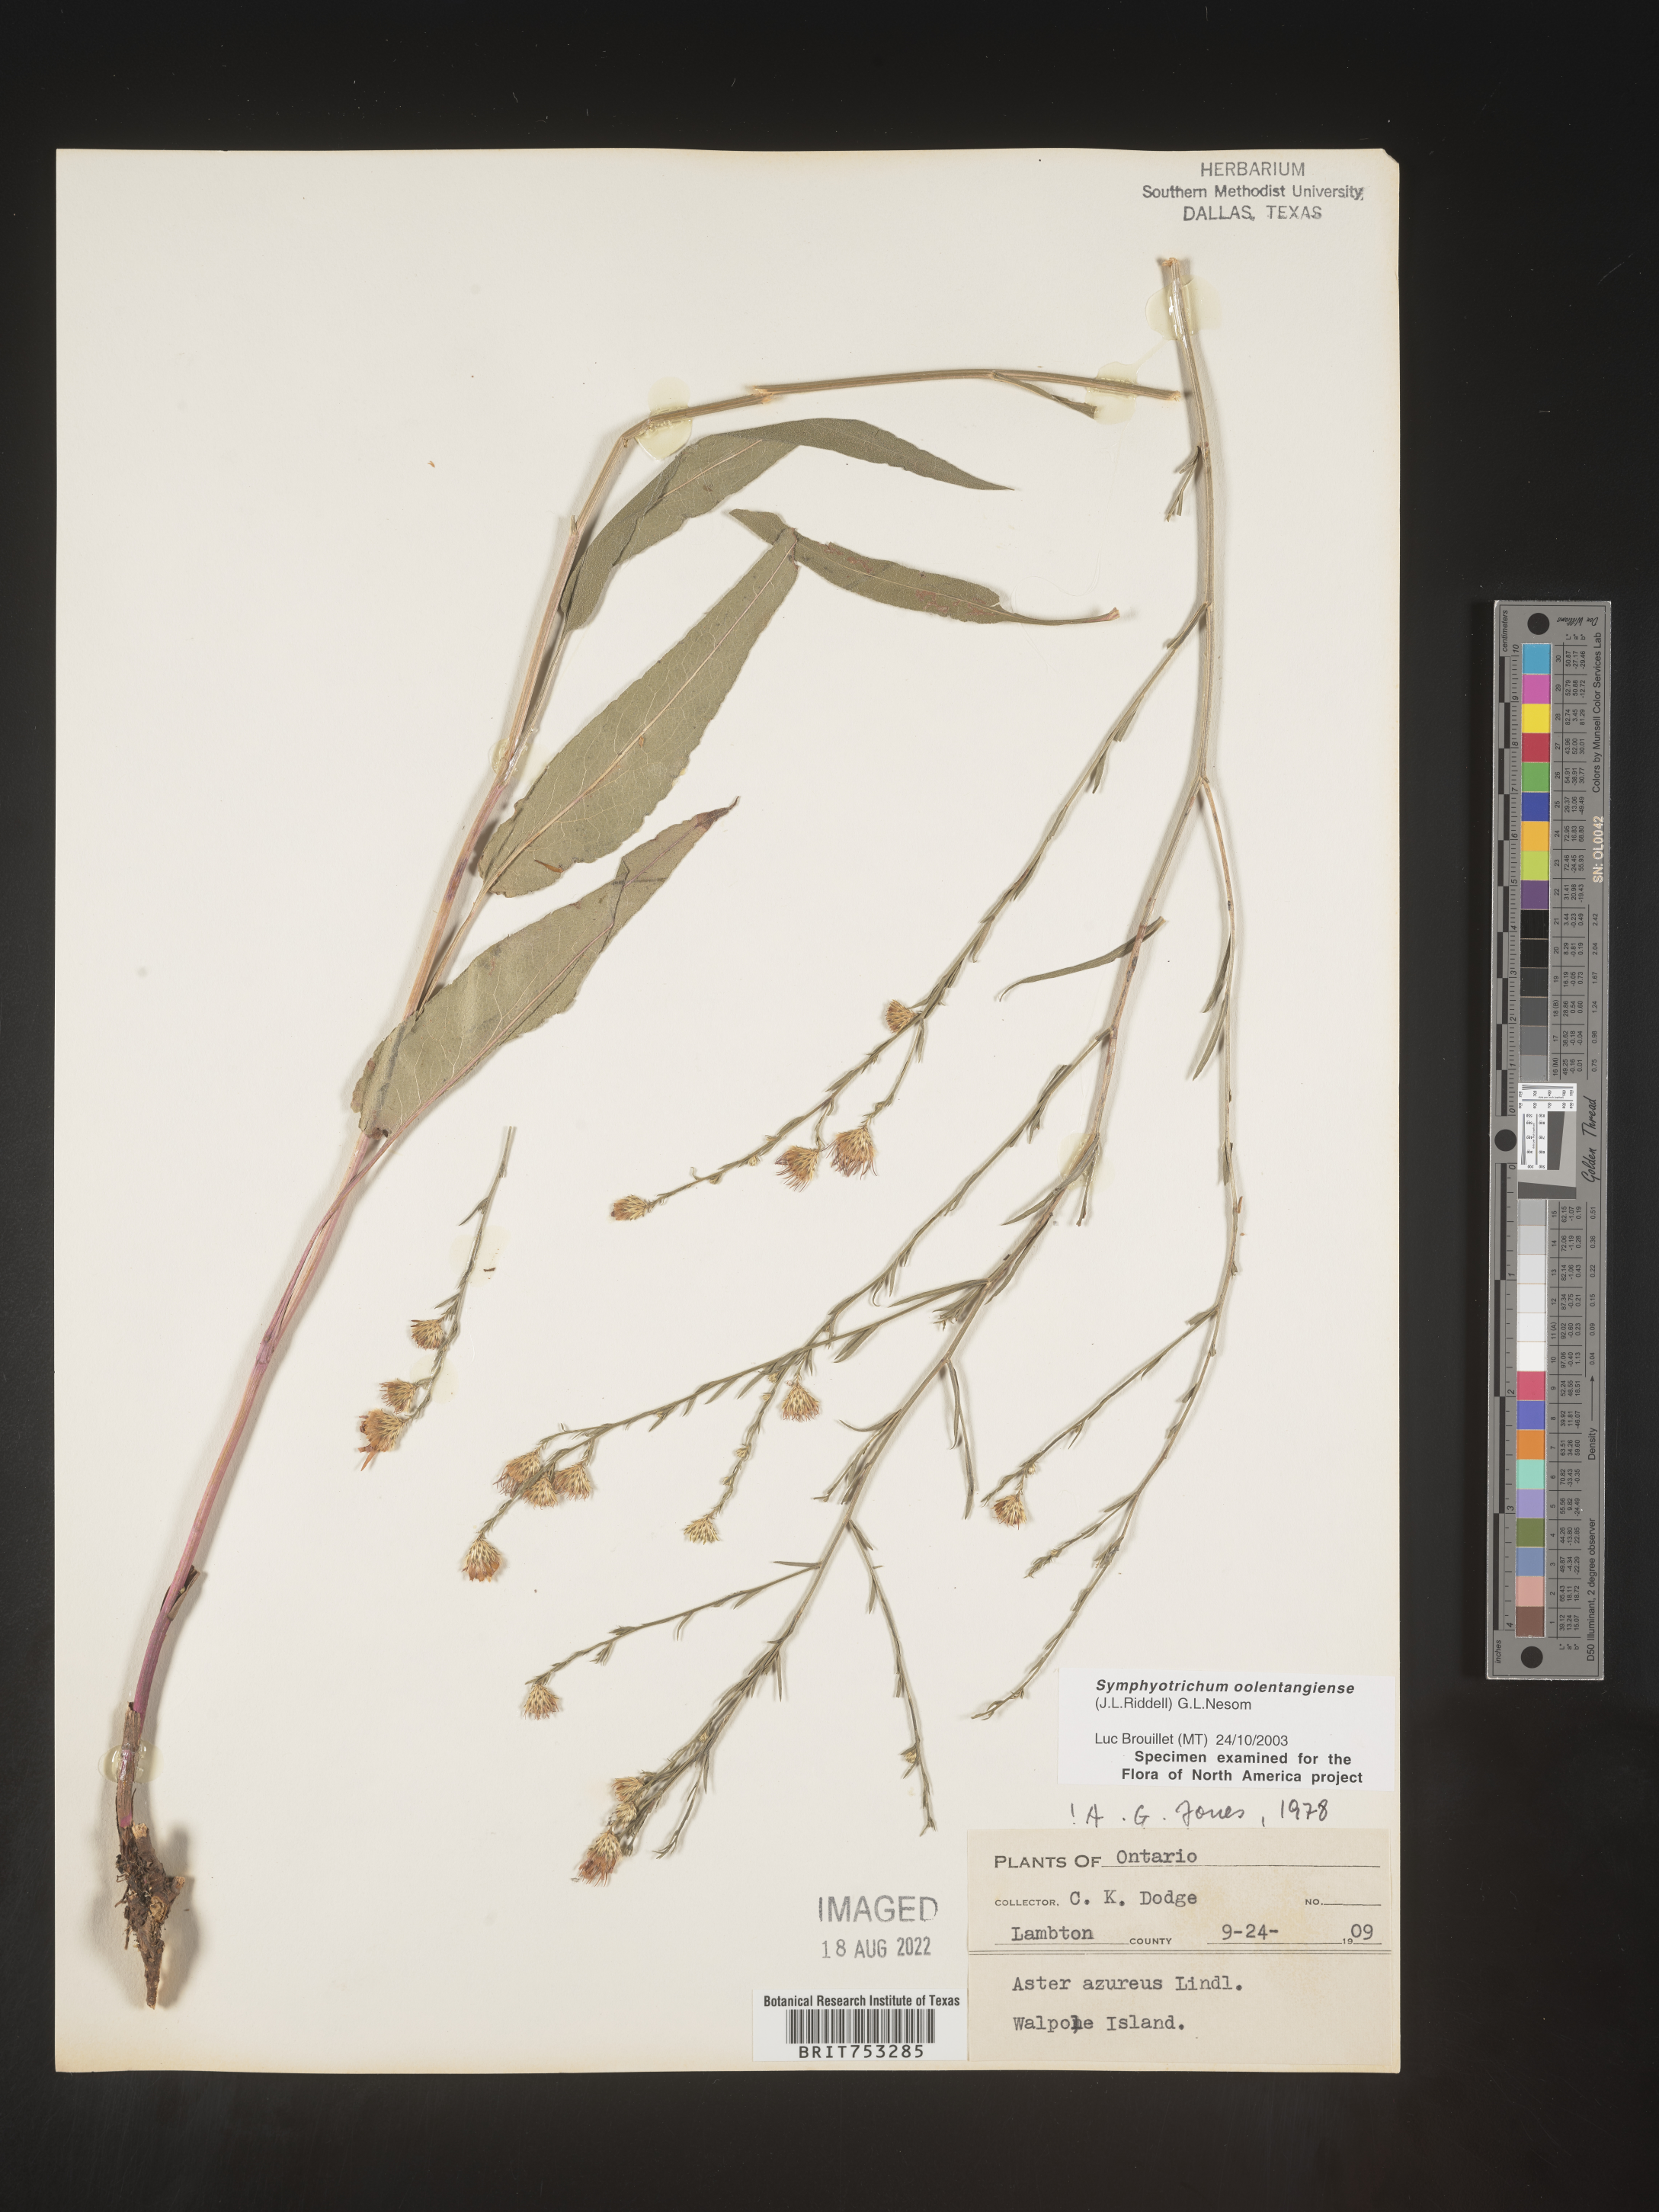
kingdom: Plantae
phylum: Tracheophyta
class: Magnoliopsida
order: Asterales
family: Asteraceae
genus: Symphyotrichum
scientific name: Symphyotrichum oolentangiense
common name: Azure aster
